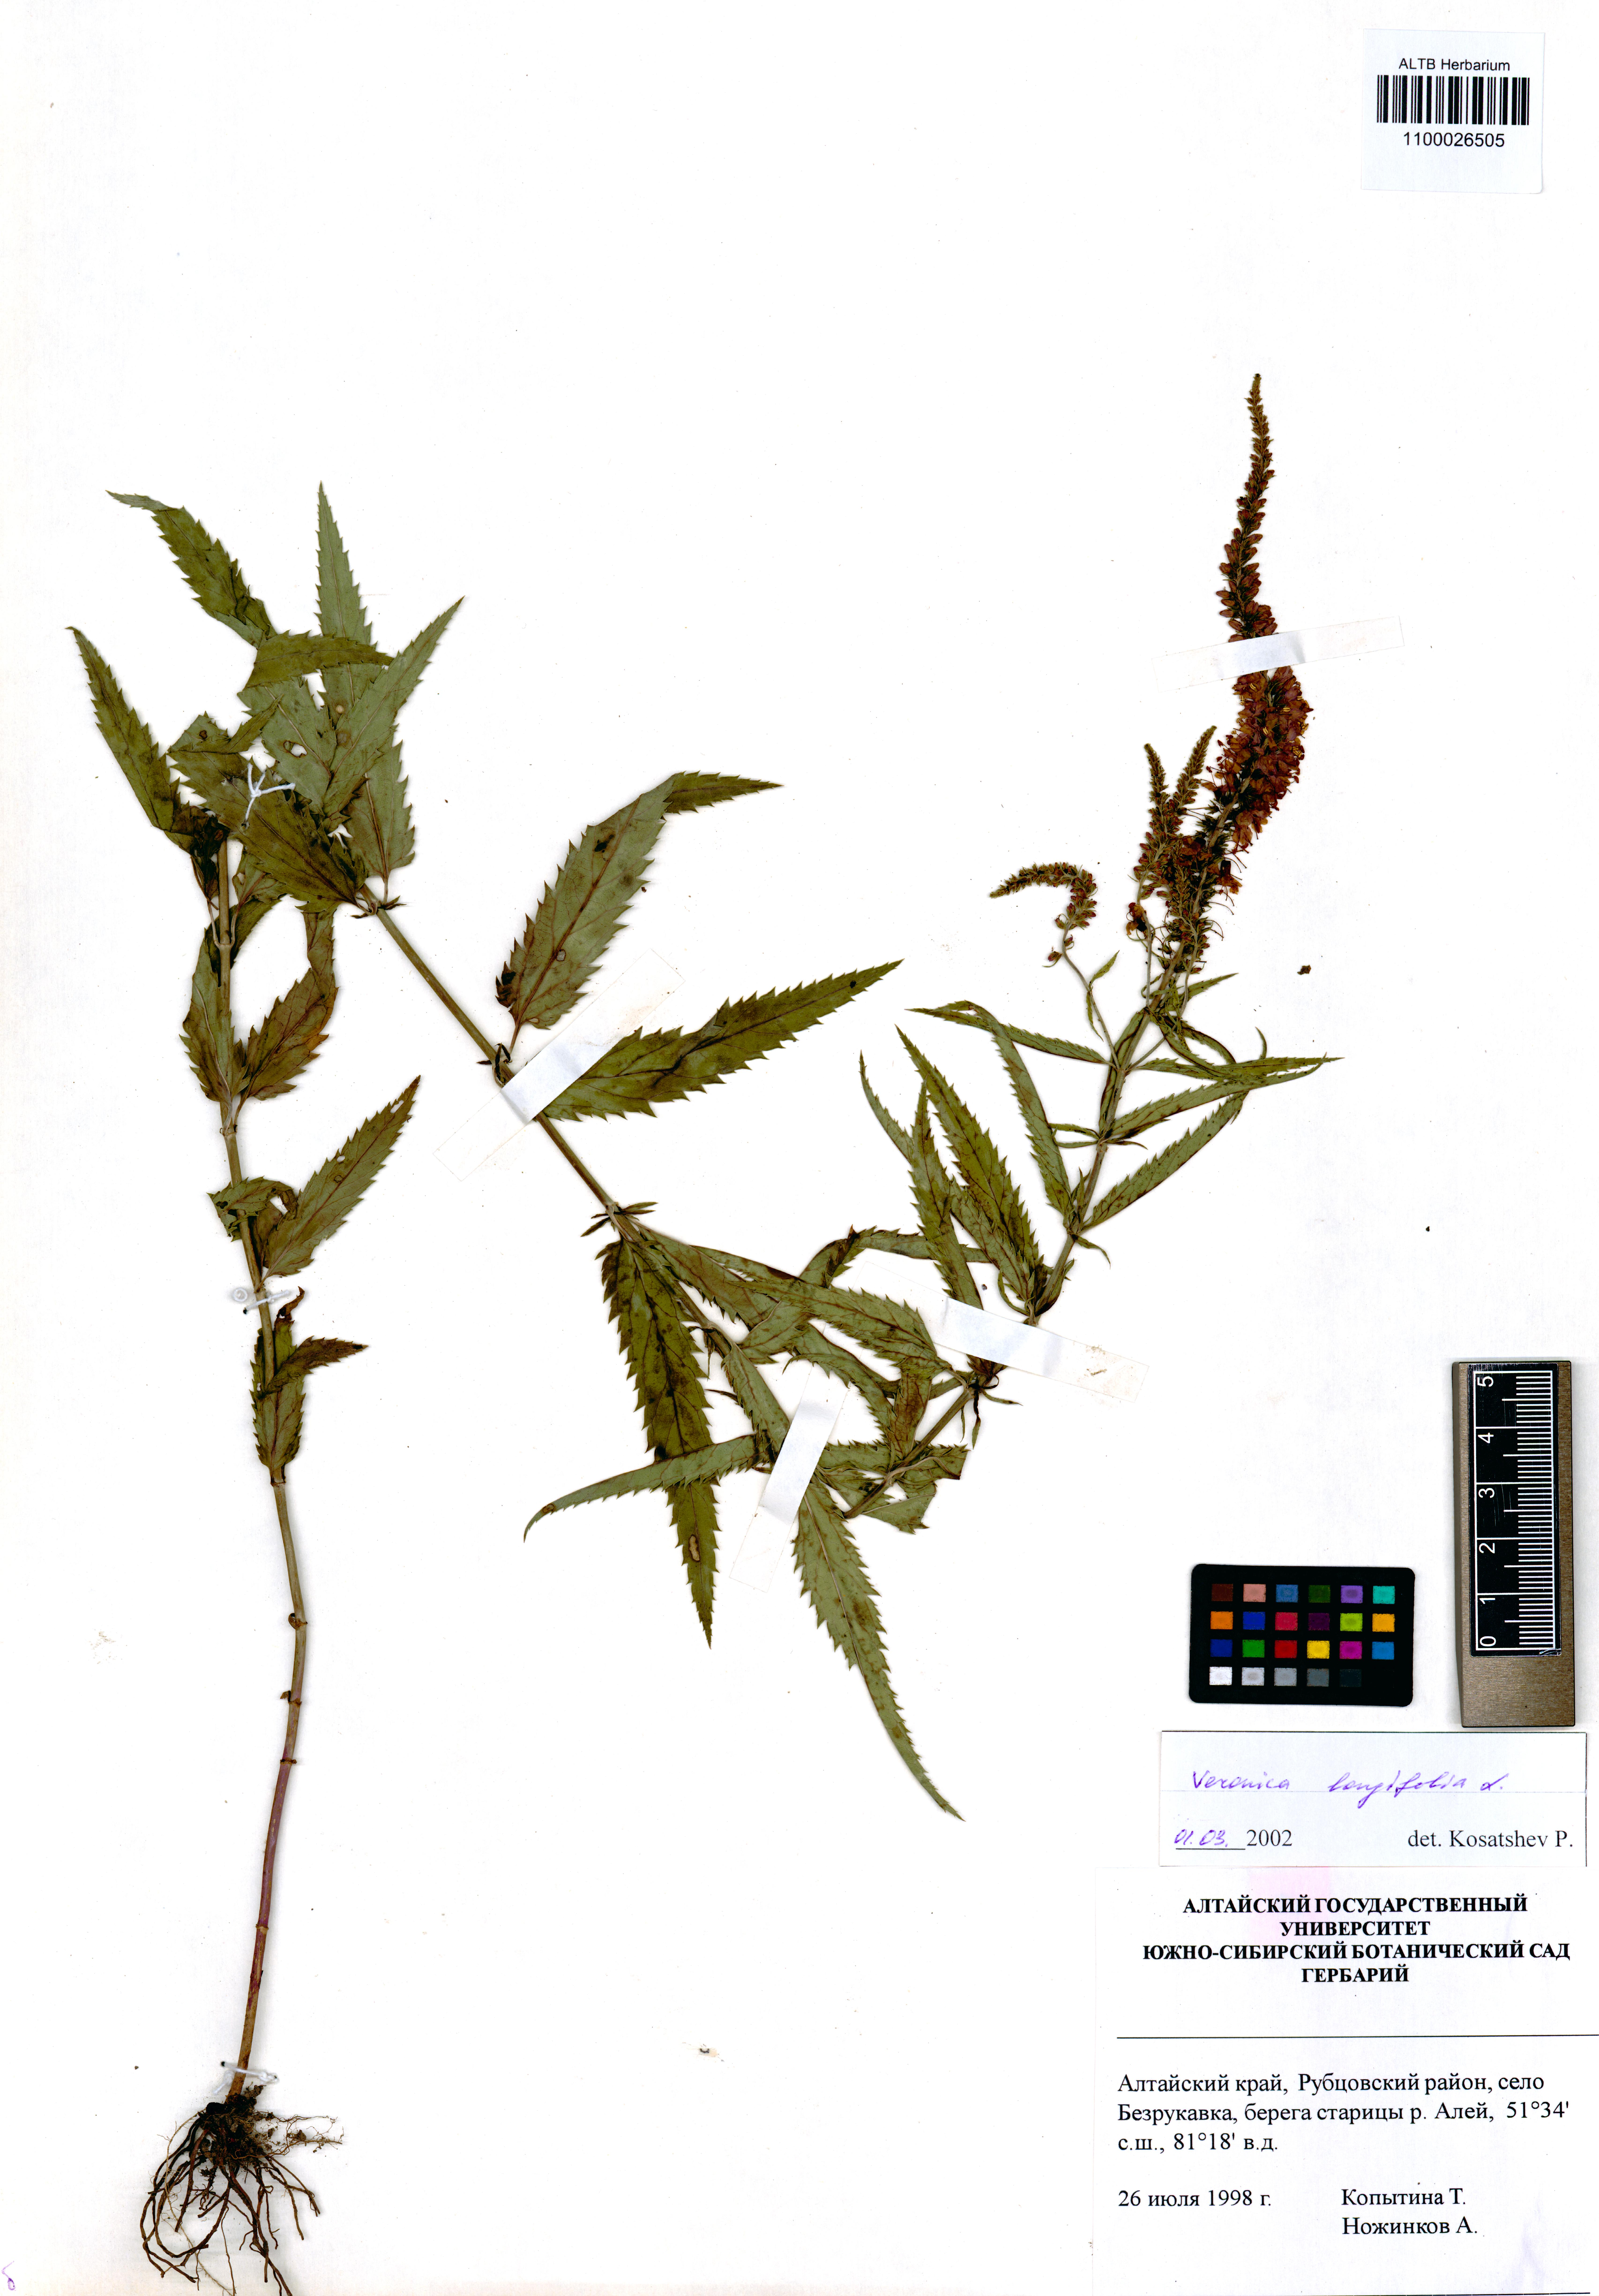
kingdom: Plantae
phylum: Tracheophyta
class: Magnoliopsida
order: Lamiales
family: Plantaginaceae
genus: Veronica
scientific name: Veronica longifolia
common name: Garden speedwell
